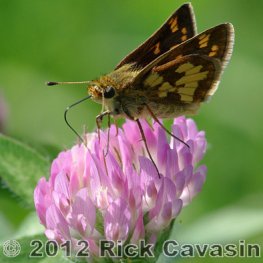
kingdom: Animalia
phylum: Arthropoda
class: Insecta
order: Lepidoptera
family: Hesperiidae
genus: Polites
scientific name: Polites coras
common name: Peck's Skipper
